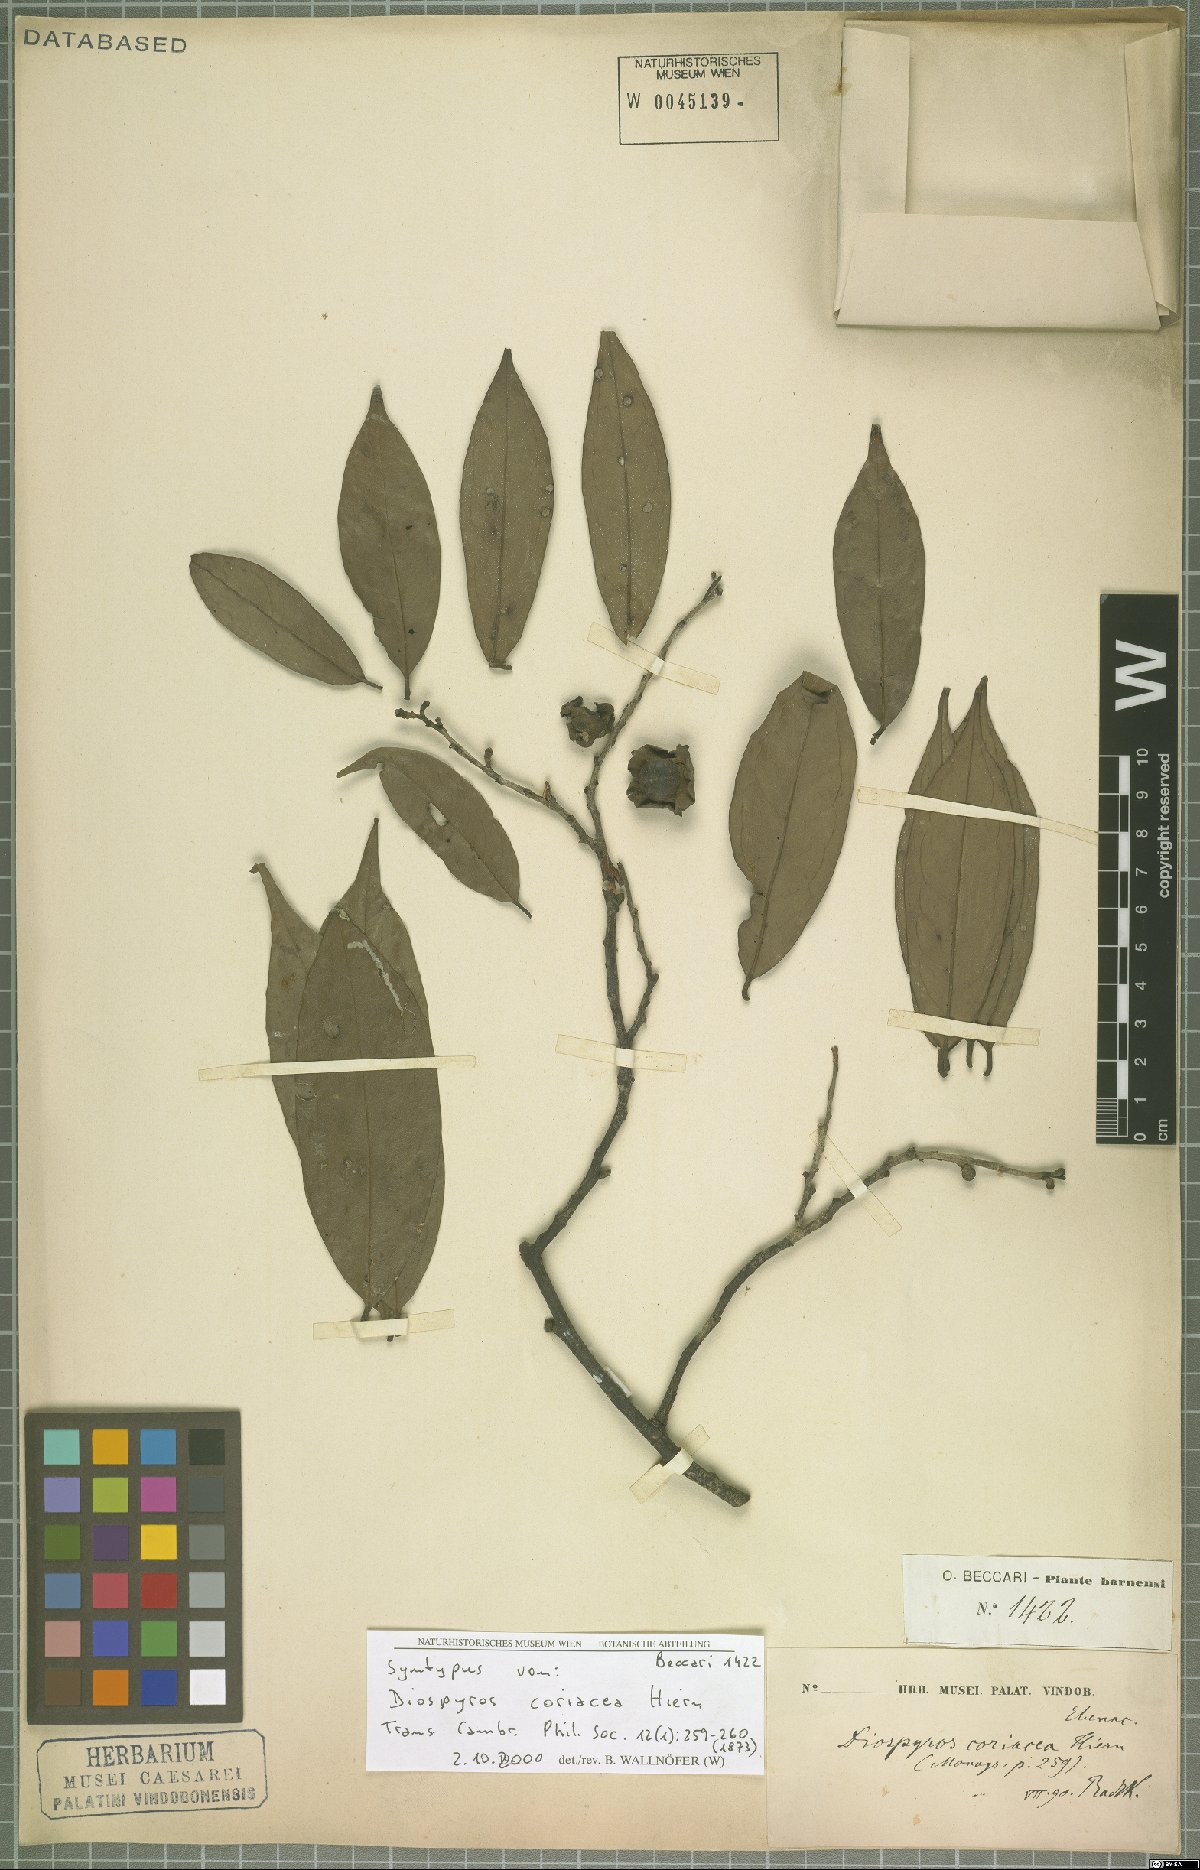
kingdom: Plantae
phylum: Tracheophyta
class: Magnoliopsida
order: Ericales
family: Ebenaceae
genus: Diospyros
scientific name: Diospyros coriacea
